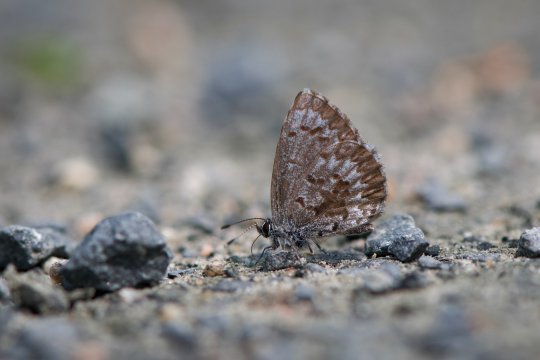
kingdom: Animalia
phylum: Arthropoda
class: Insecta
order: Lepidoptera
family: Lycaenidae
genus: Celastrina
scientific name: Celastrina lucia
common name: Northern Spring Azure
